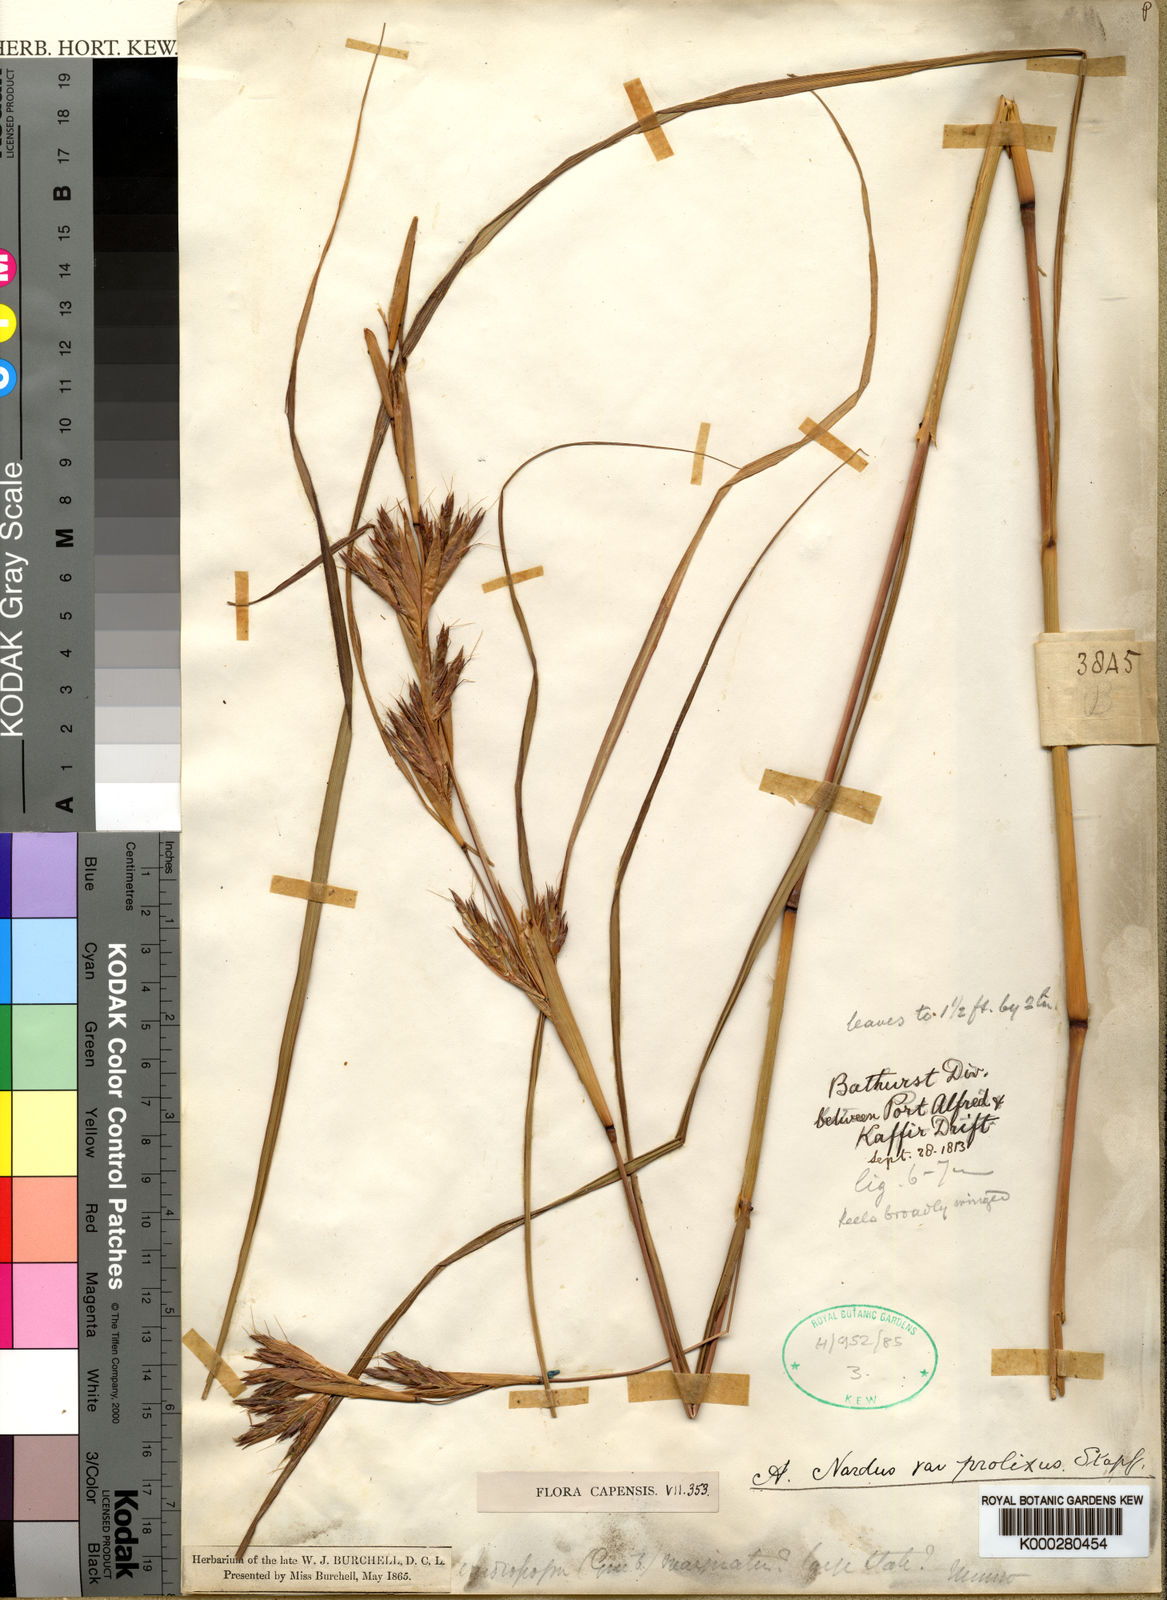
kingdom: Plantae
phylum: Tracheophyta
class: Liliopsida
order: Poales
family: Poaceae
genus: Cymbopogon
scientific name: Cymbopogon nardus
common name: Giant turpentine grass
